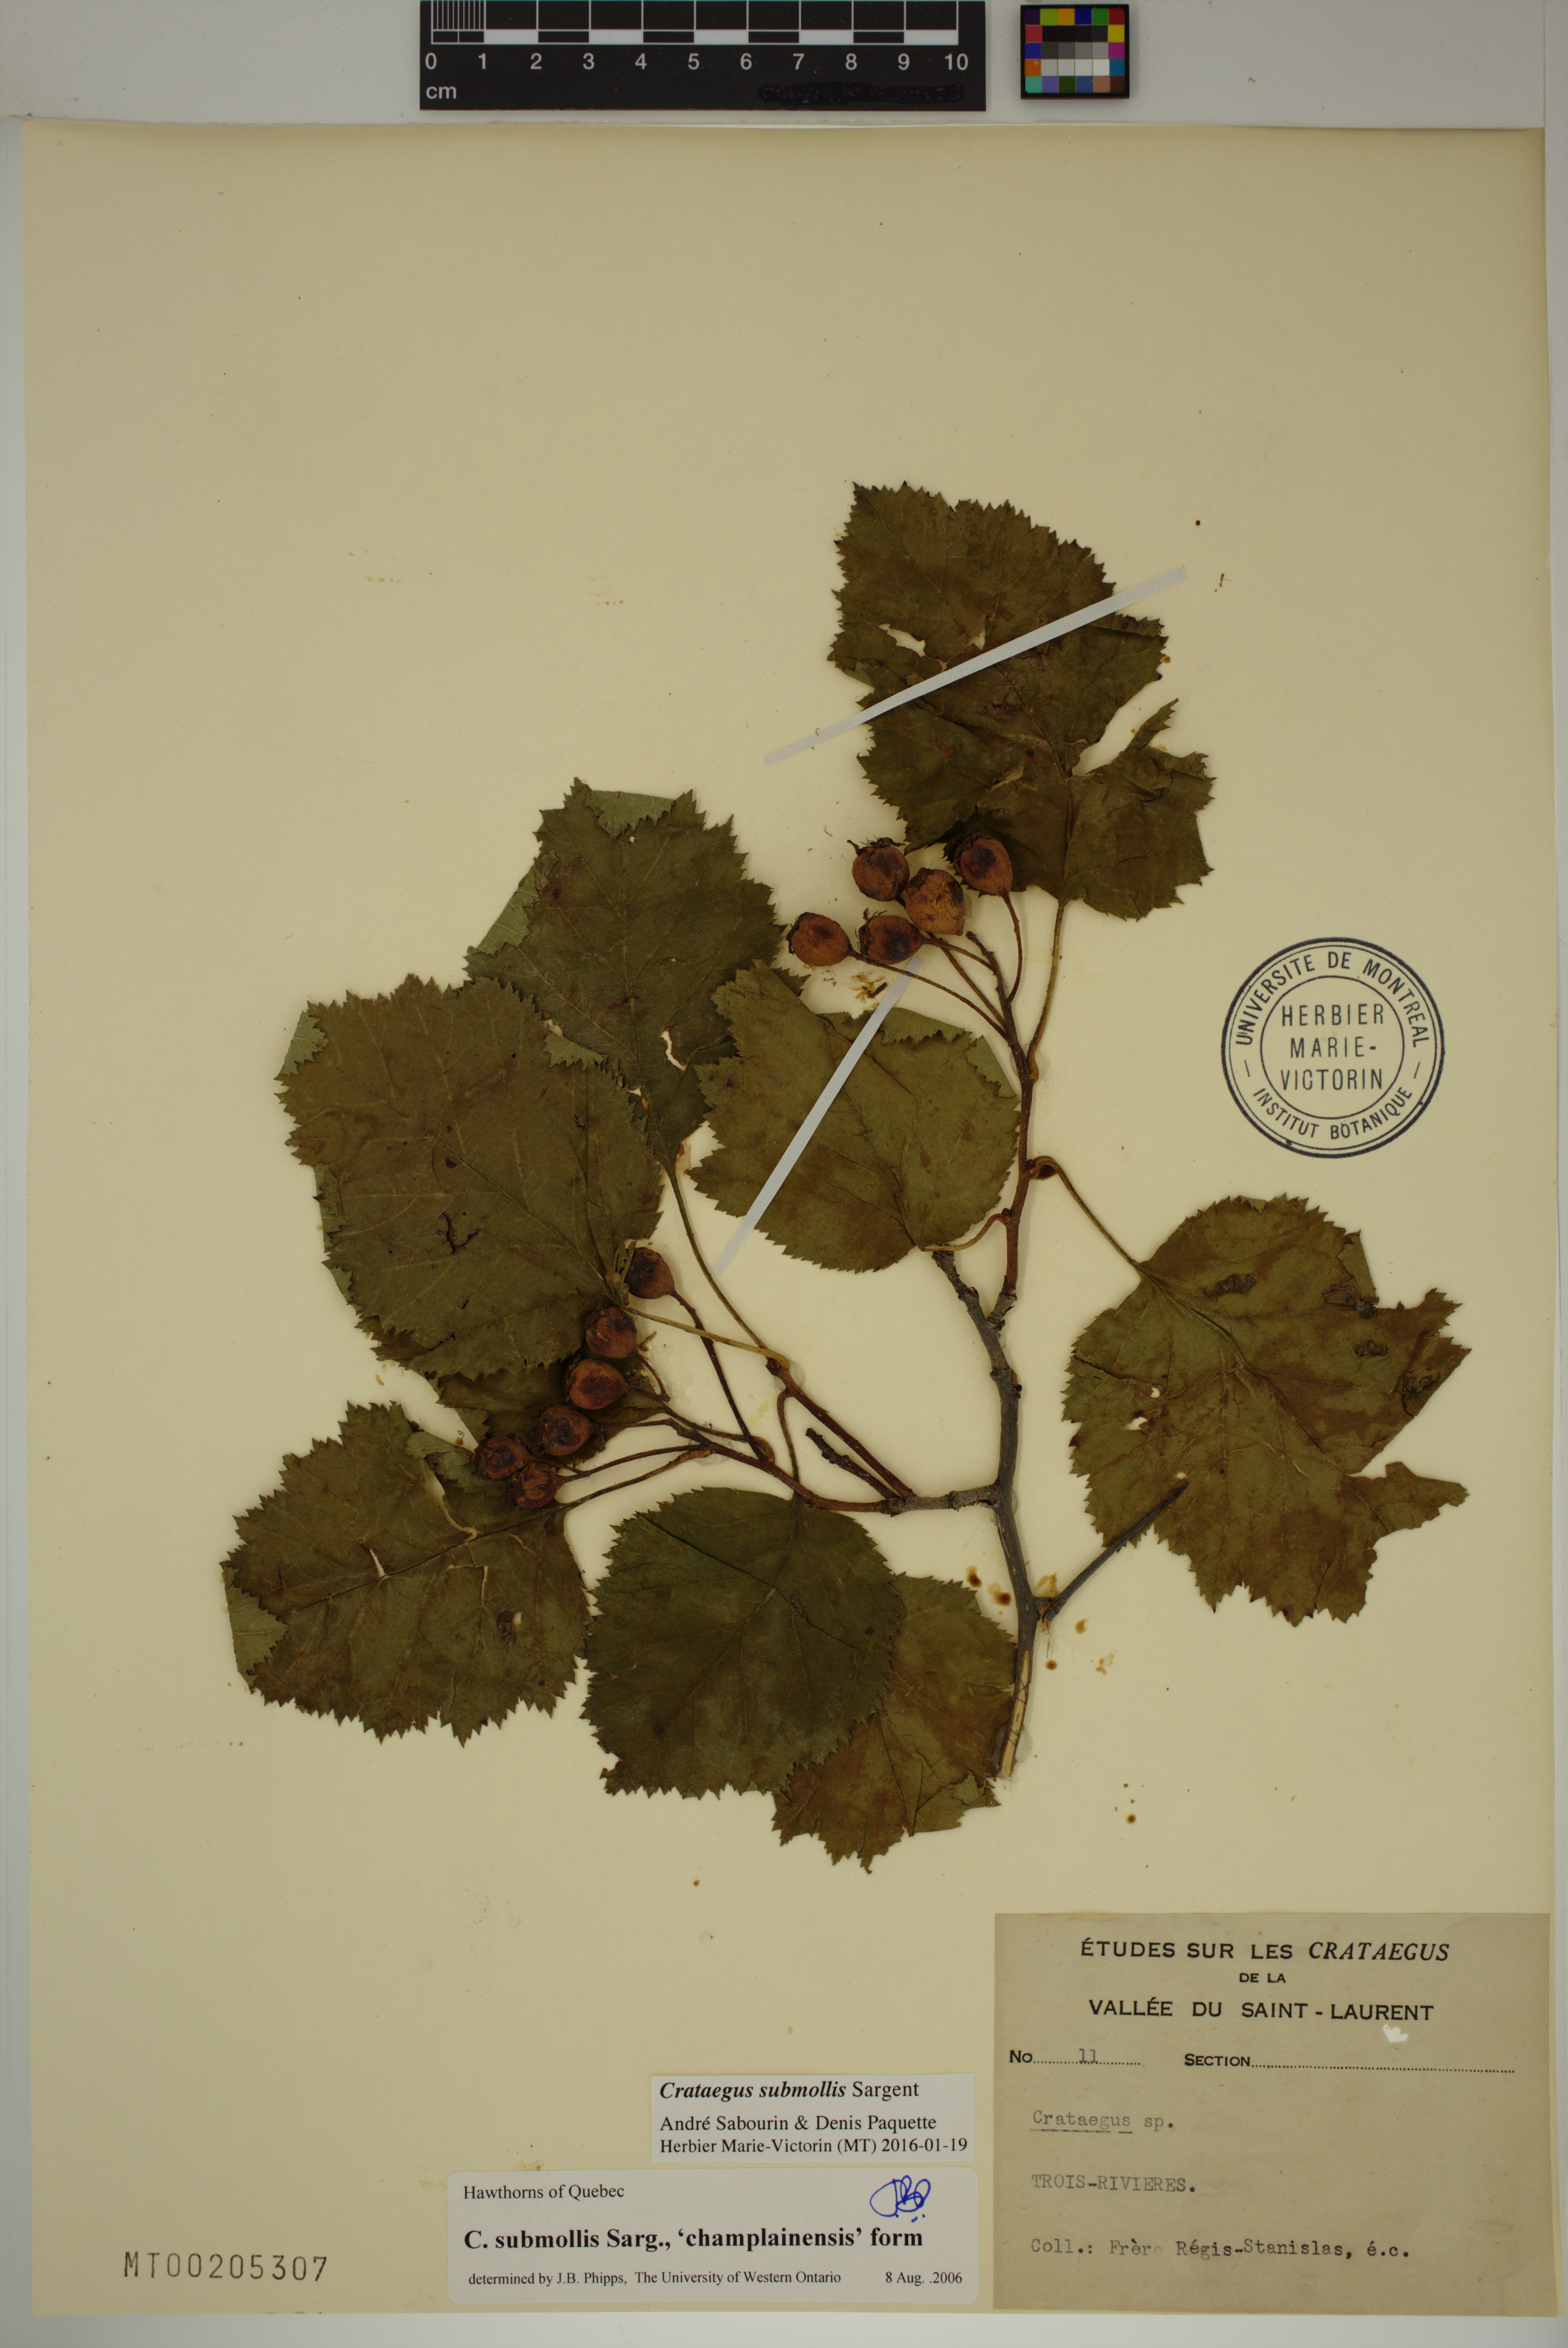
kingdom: Plantae
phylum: Tracheophyta
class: Magnoliopsida
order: Rosales
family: Rosaceae
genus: Crataegus
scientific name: Crataegus submollis
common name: Hairy cockspurthorn
